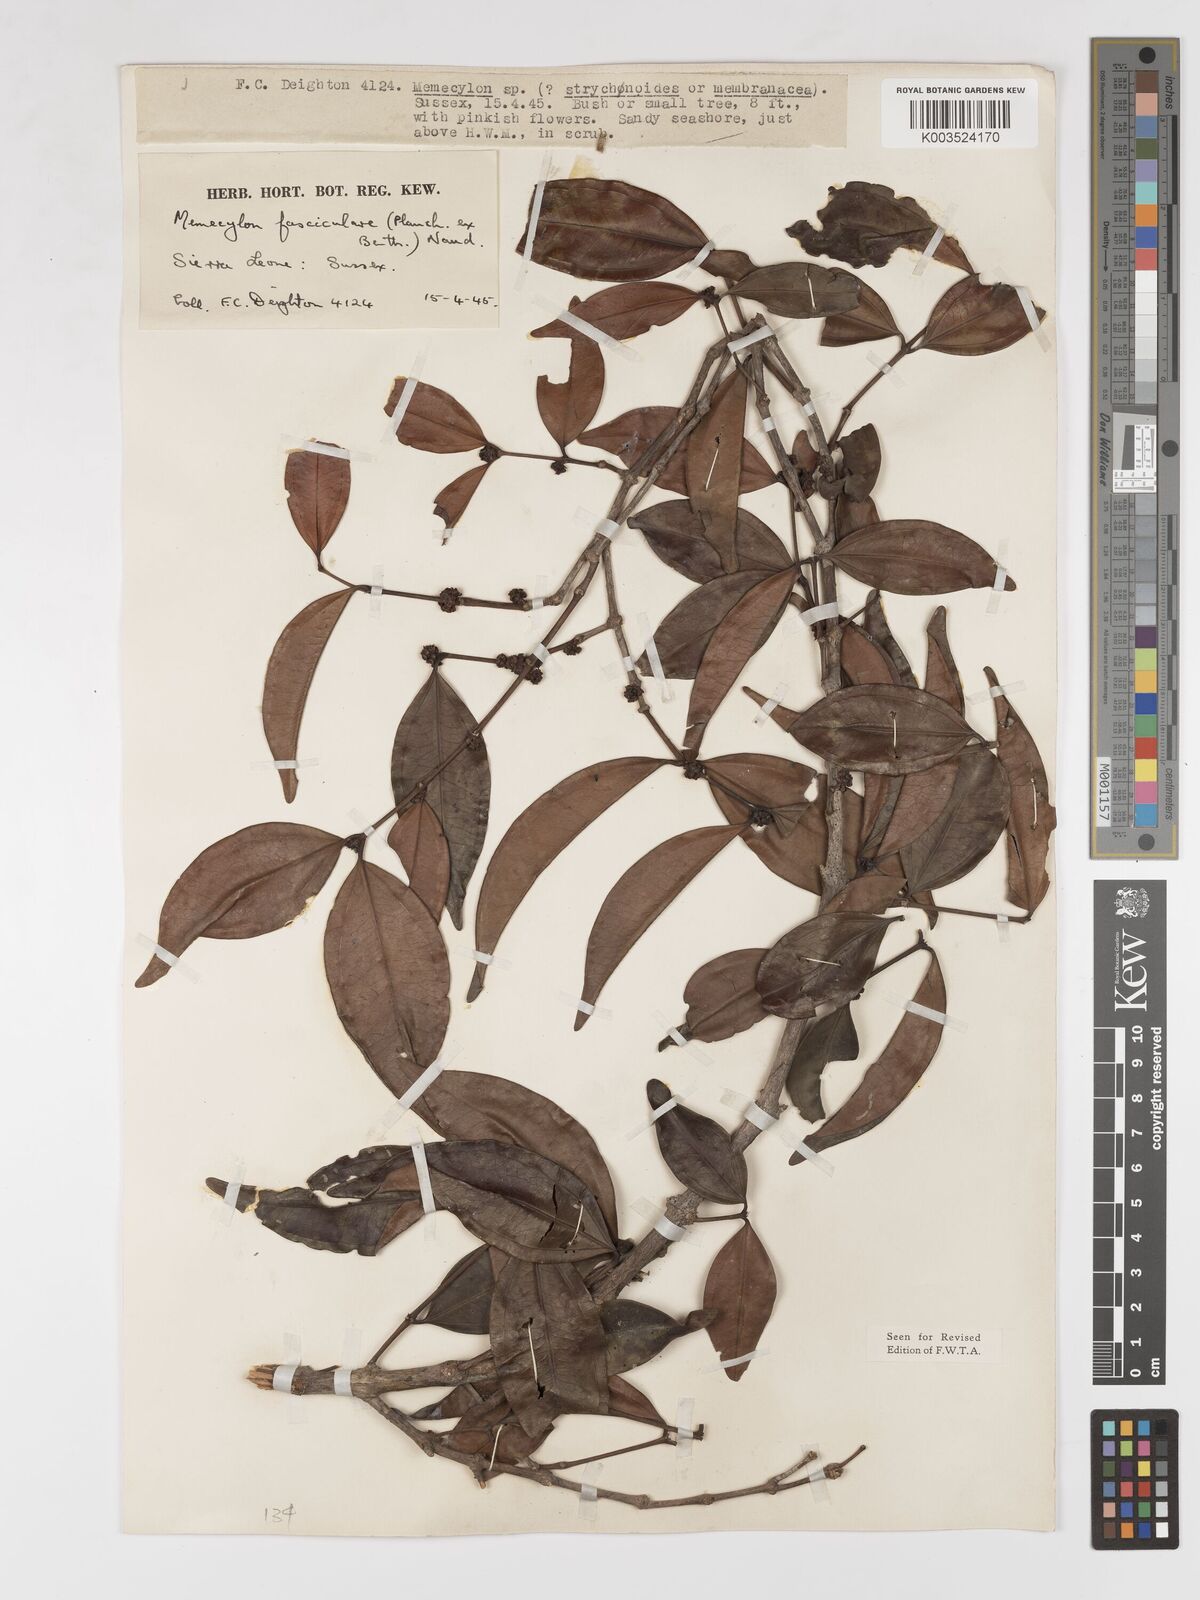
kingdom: Plantae
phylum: Tracheophyta
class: Magnoliopsida
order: Myrtales
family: Melastomataceae
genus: Warneckea
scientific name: Warneckea fascicularis
